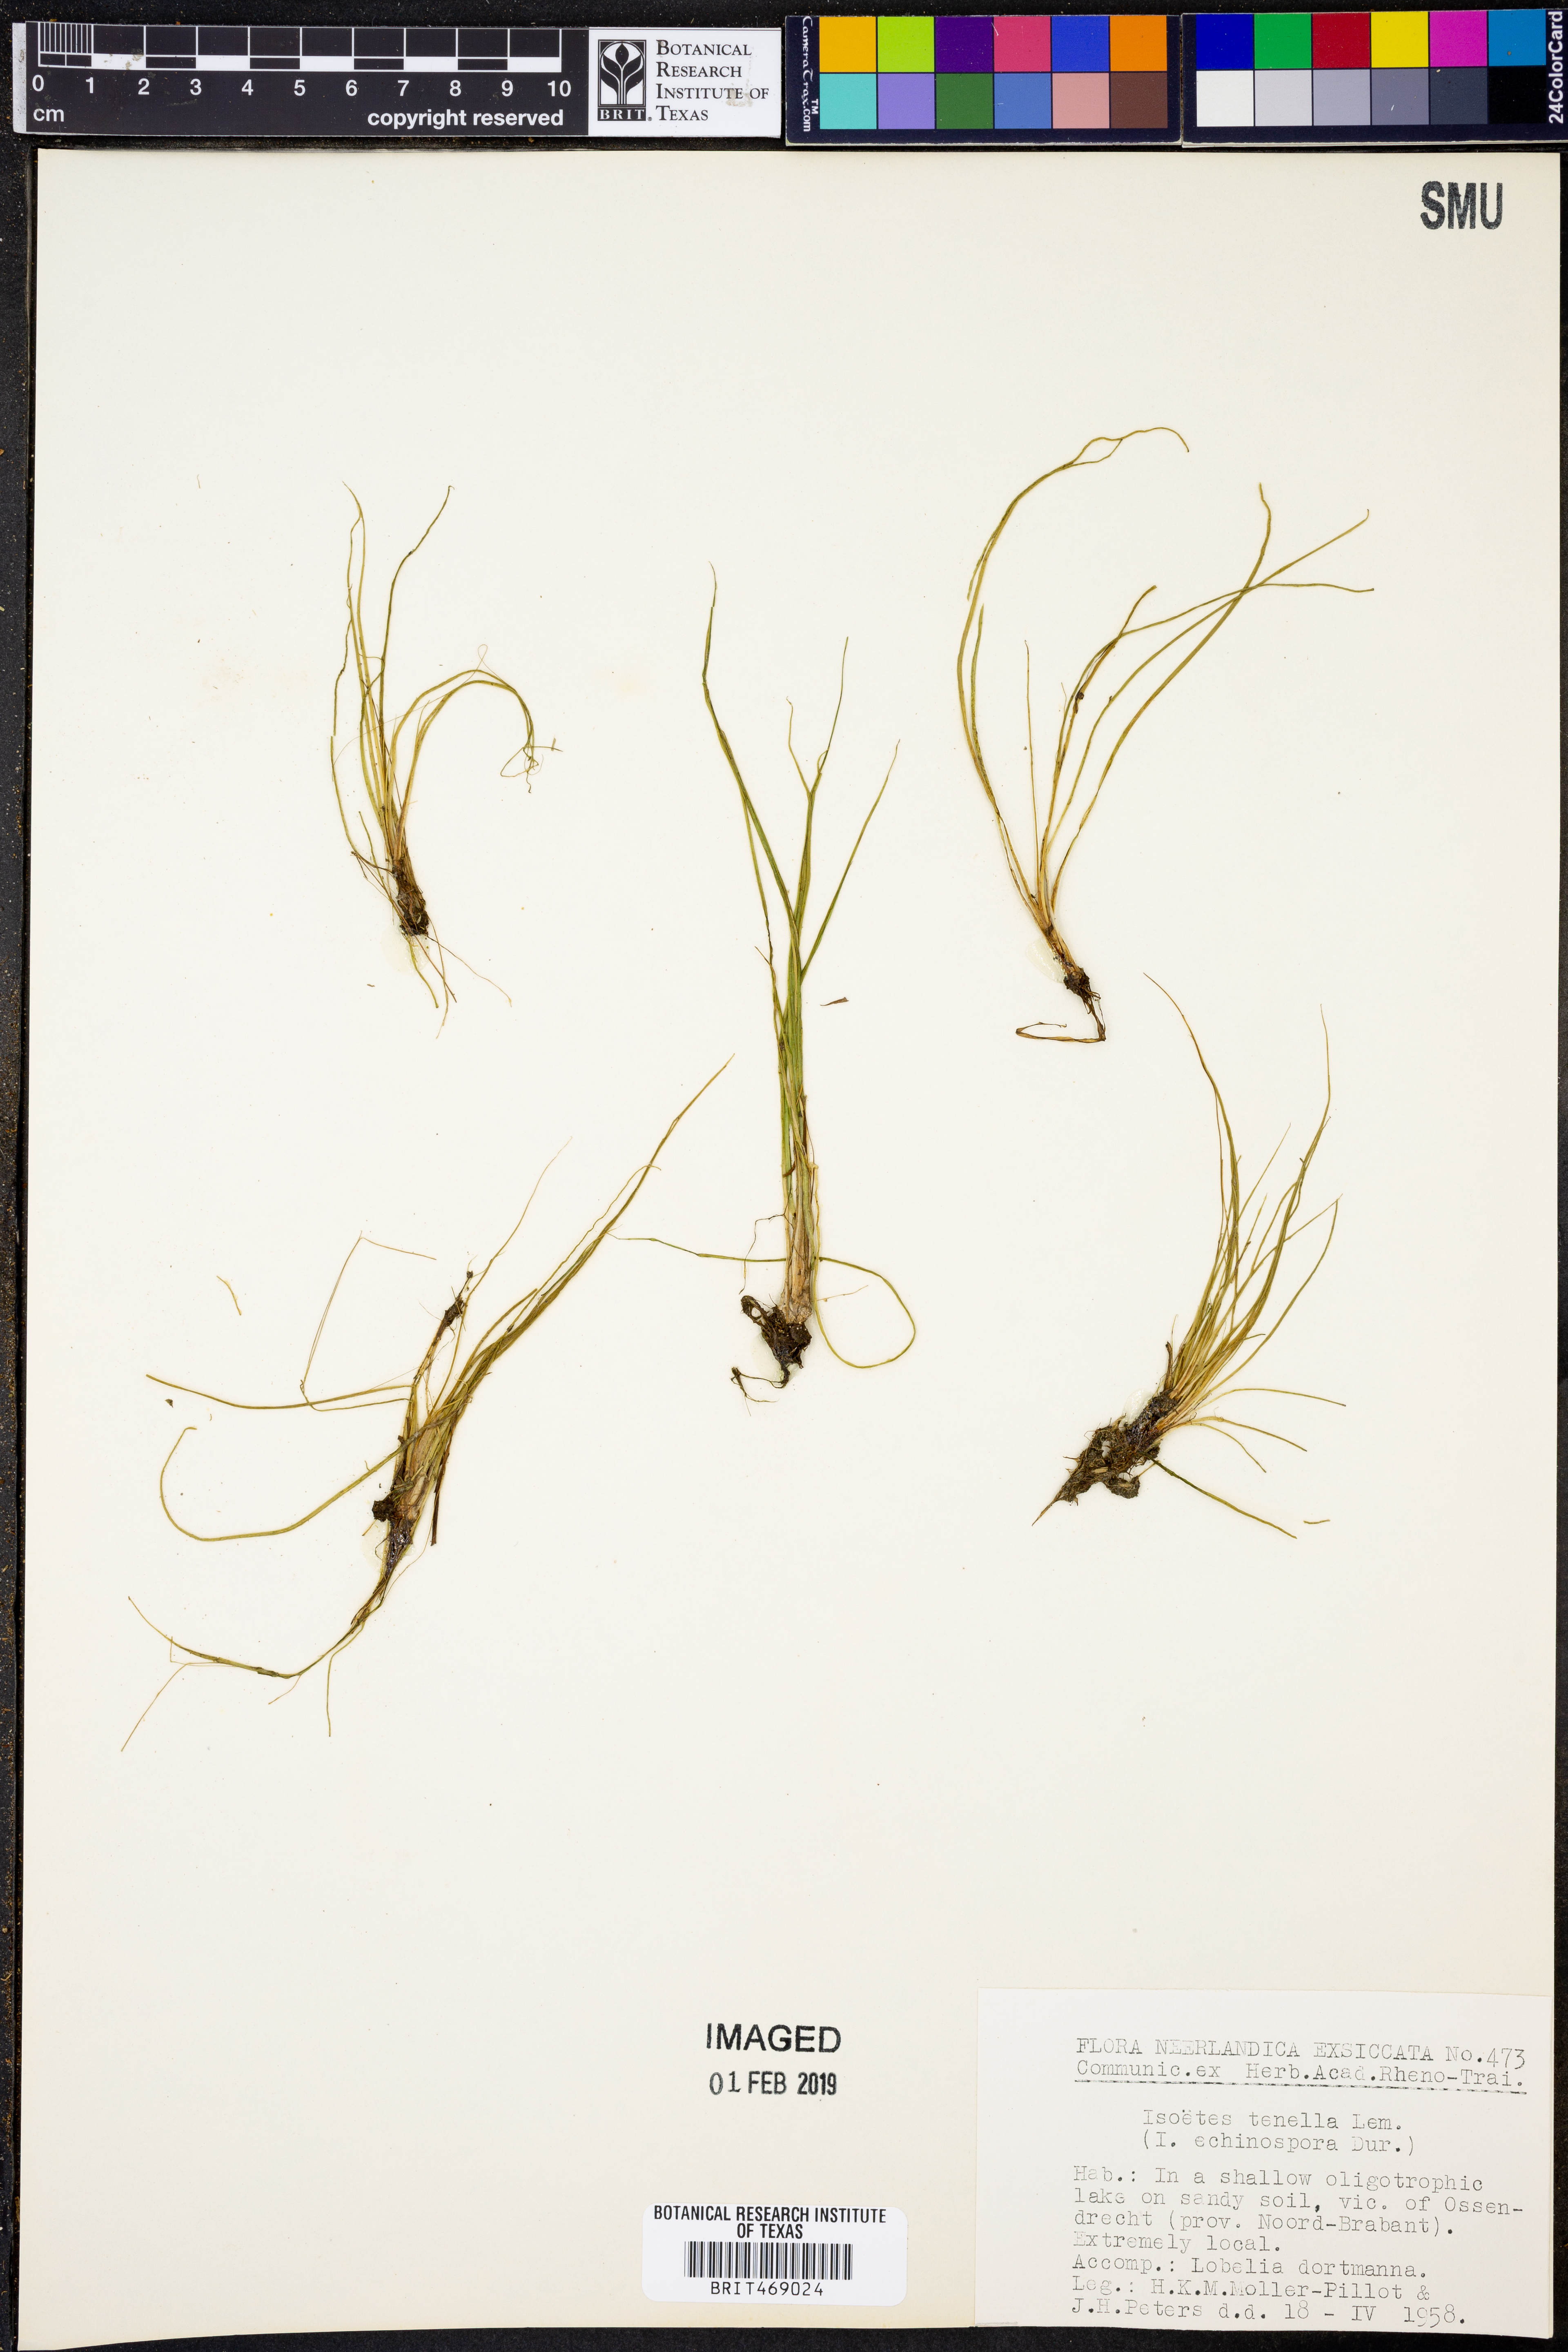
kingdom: Plantae
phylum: Tracheophyta
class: Lycopodiopsida
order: Isoetales
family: Isoetaceae
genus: Isoetes
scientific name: Isoetes lacustris
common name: Common quillwort
